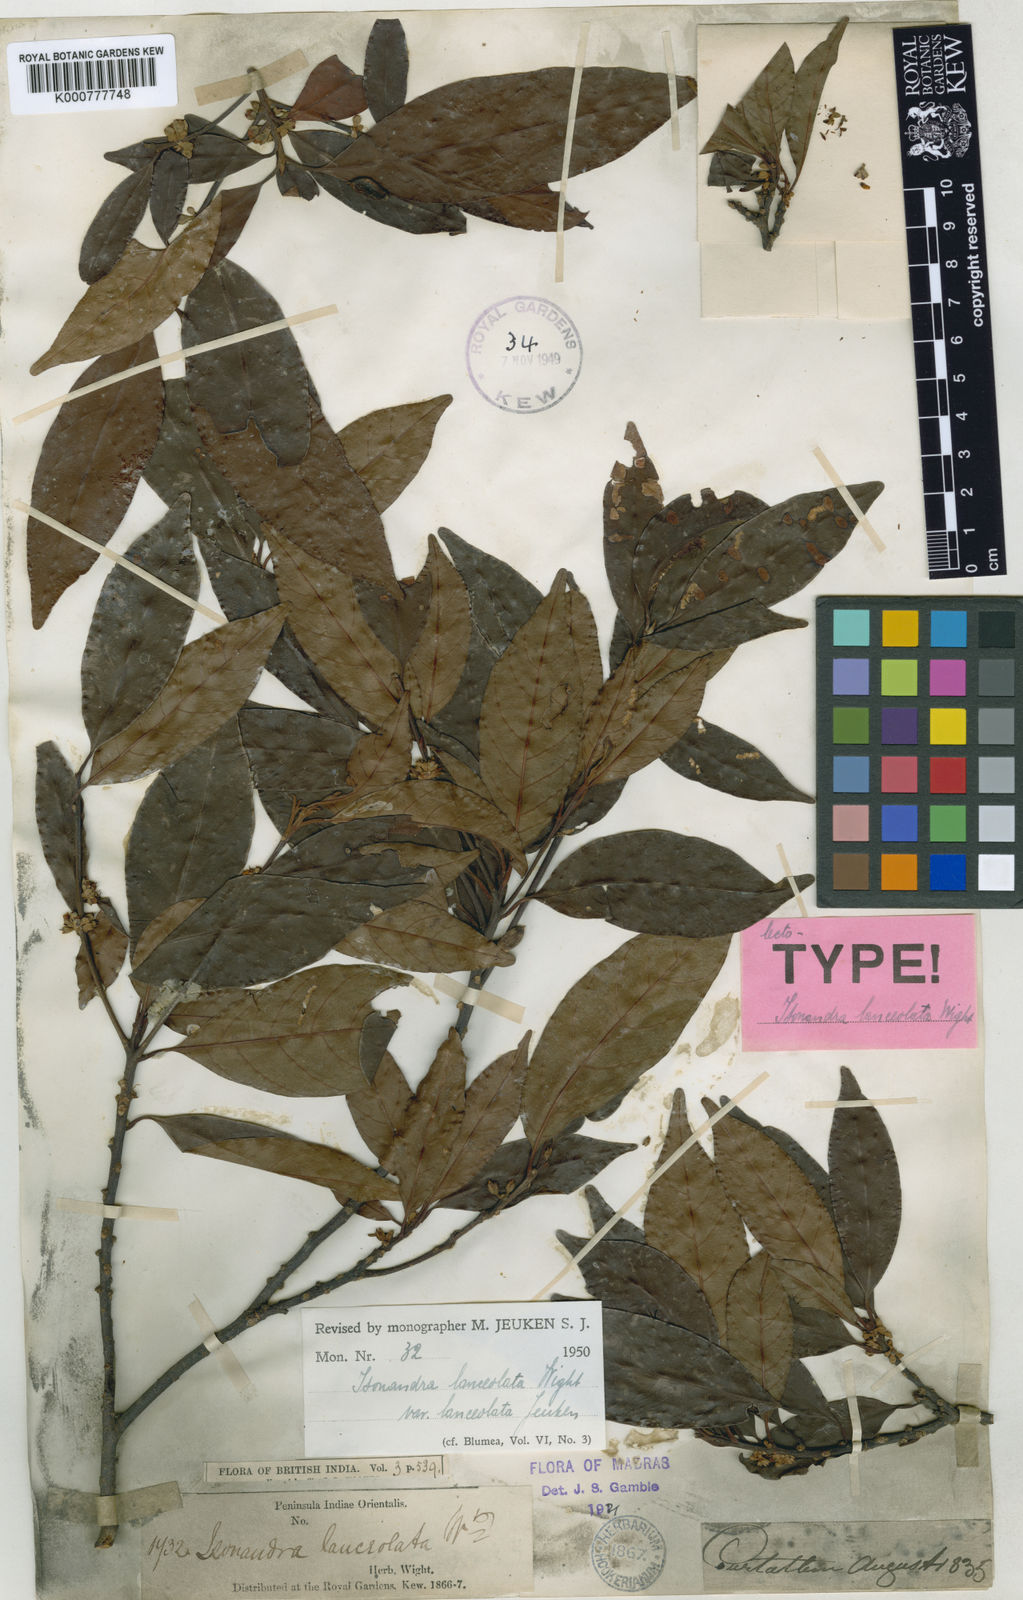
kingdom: Plantae
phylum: Tracheophyta
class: Magnoliopsida
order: Ericales
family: Sapotaceae
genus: Isonandra
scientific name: Isonandra lanceolata
